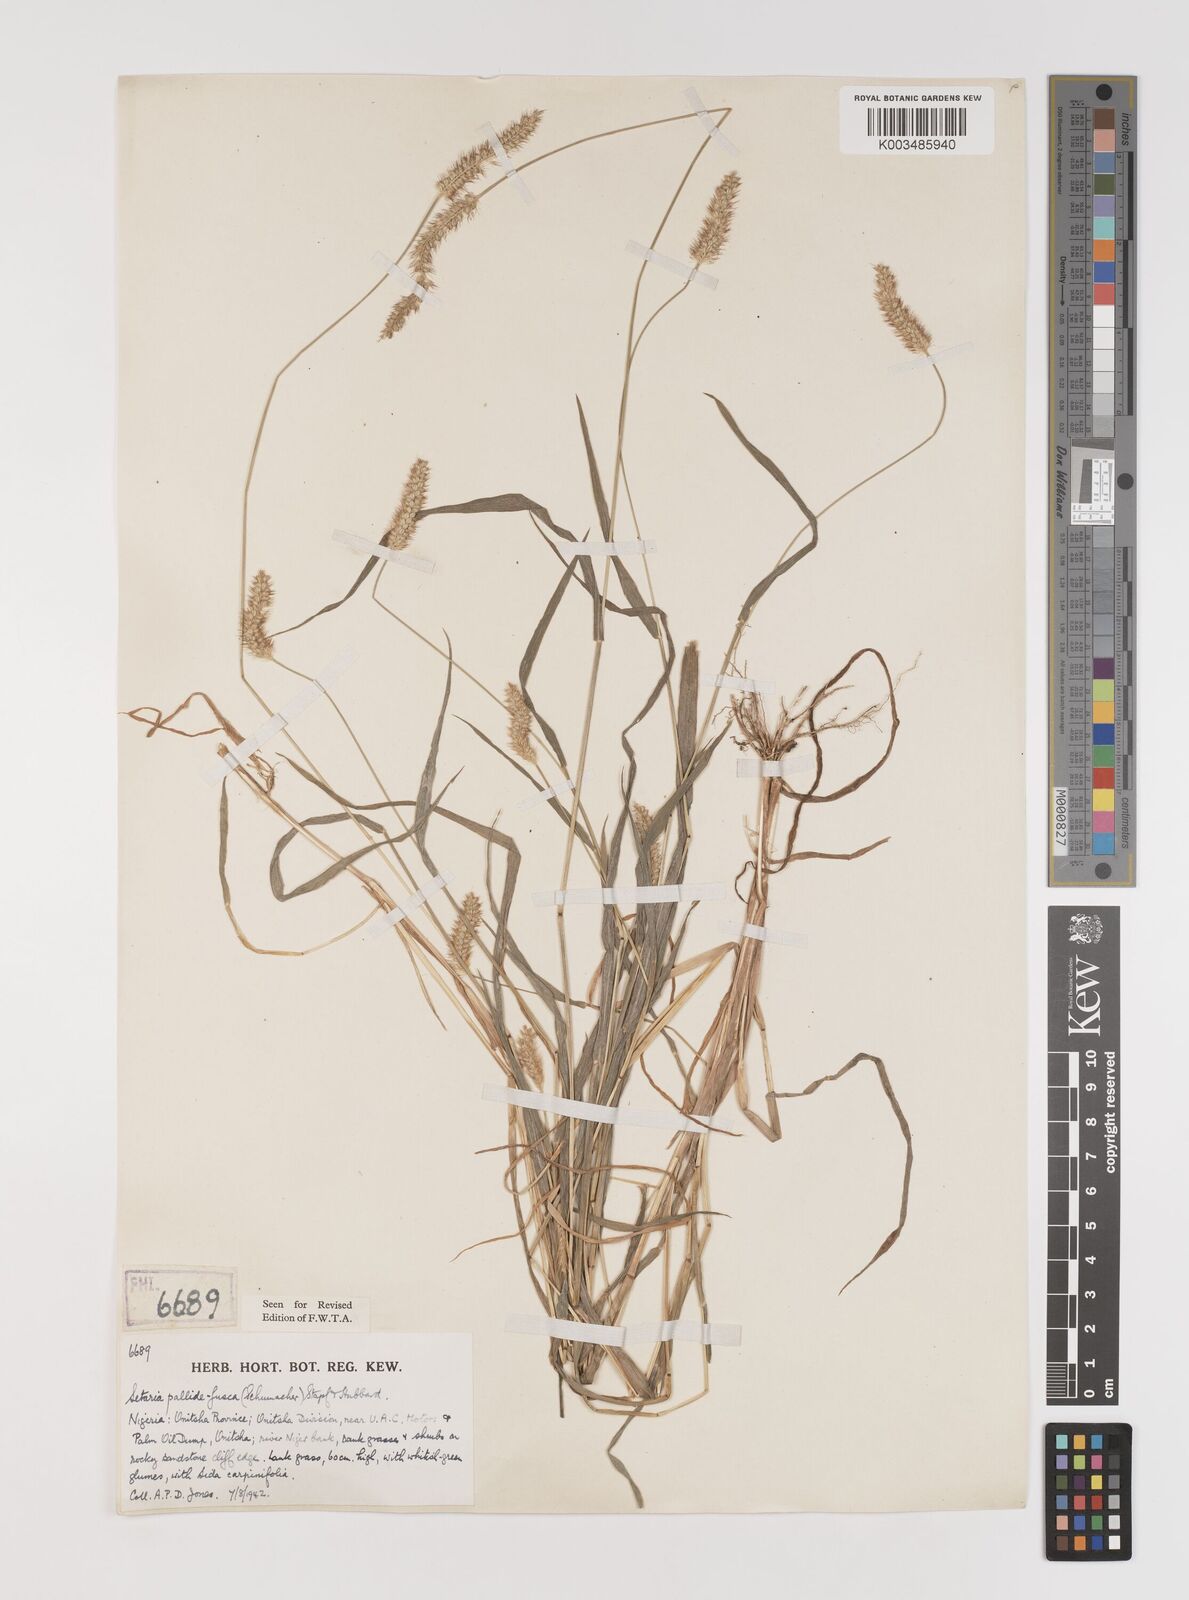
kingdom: Plantae
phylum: Tracheophyta
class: Liliopsida
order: Poales
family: Poaceae
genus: Setaria
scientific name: Setaria pumila
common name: Yellow bristle-grass
